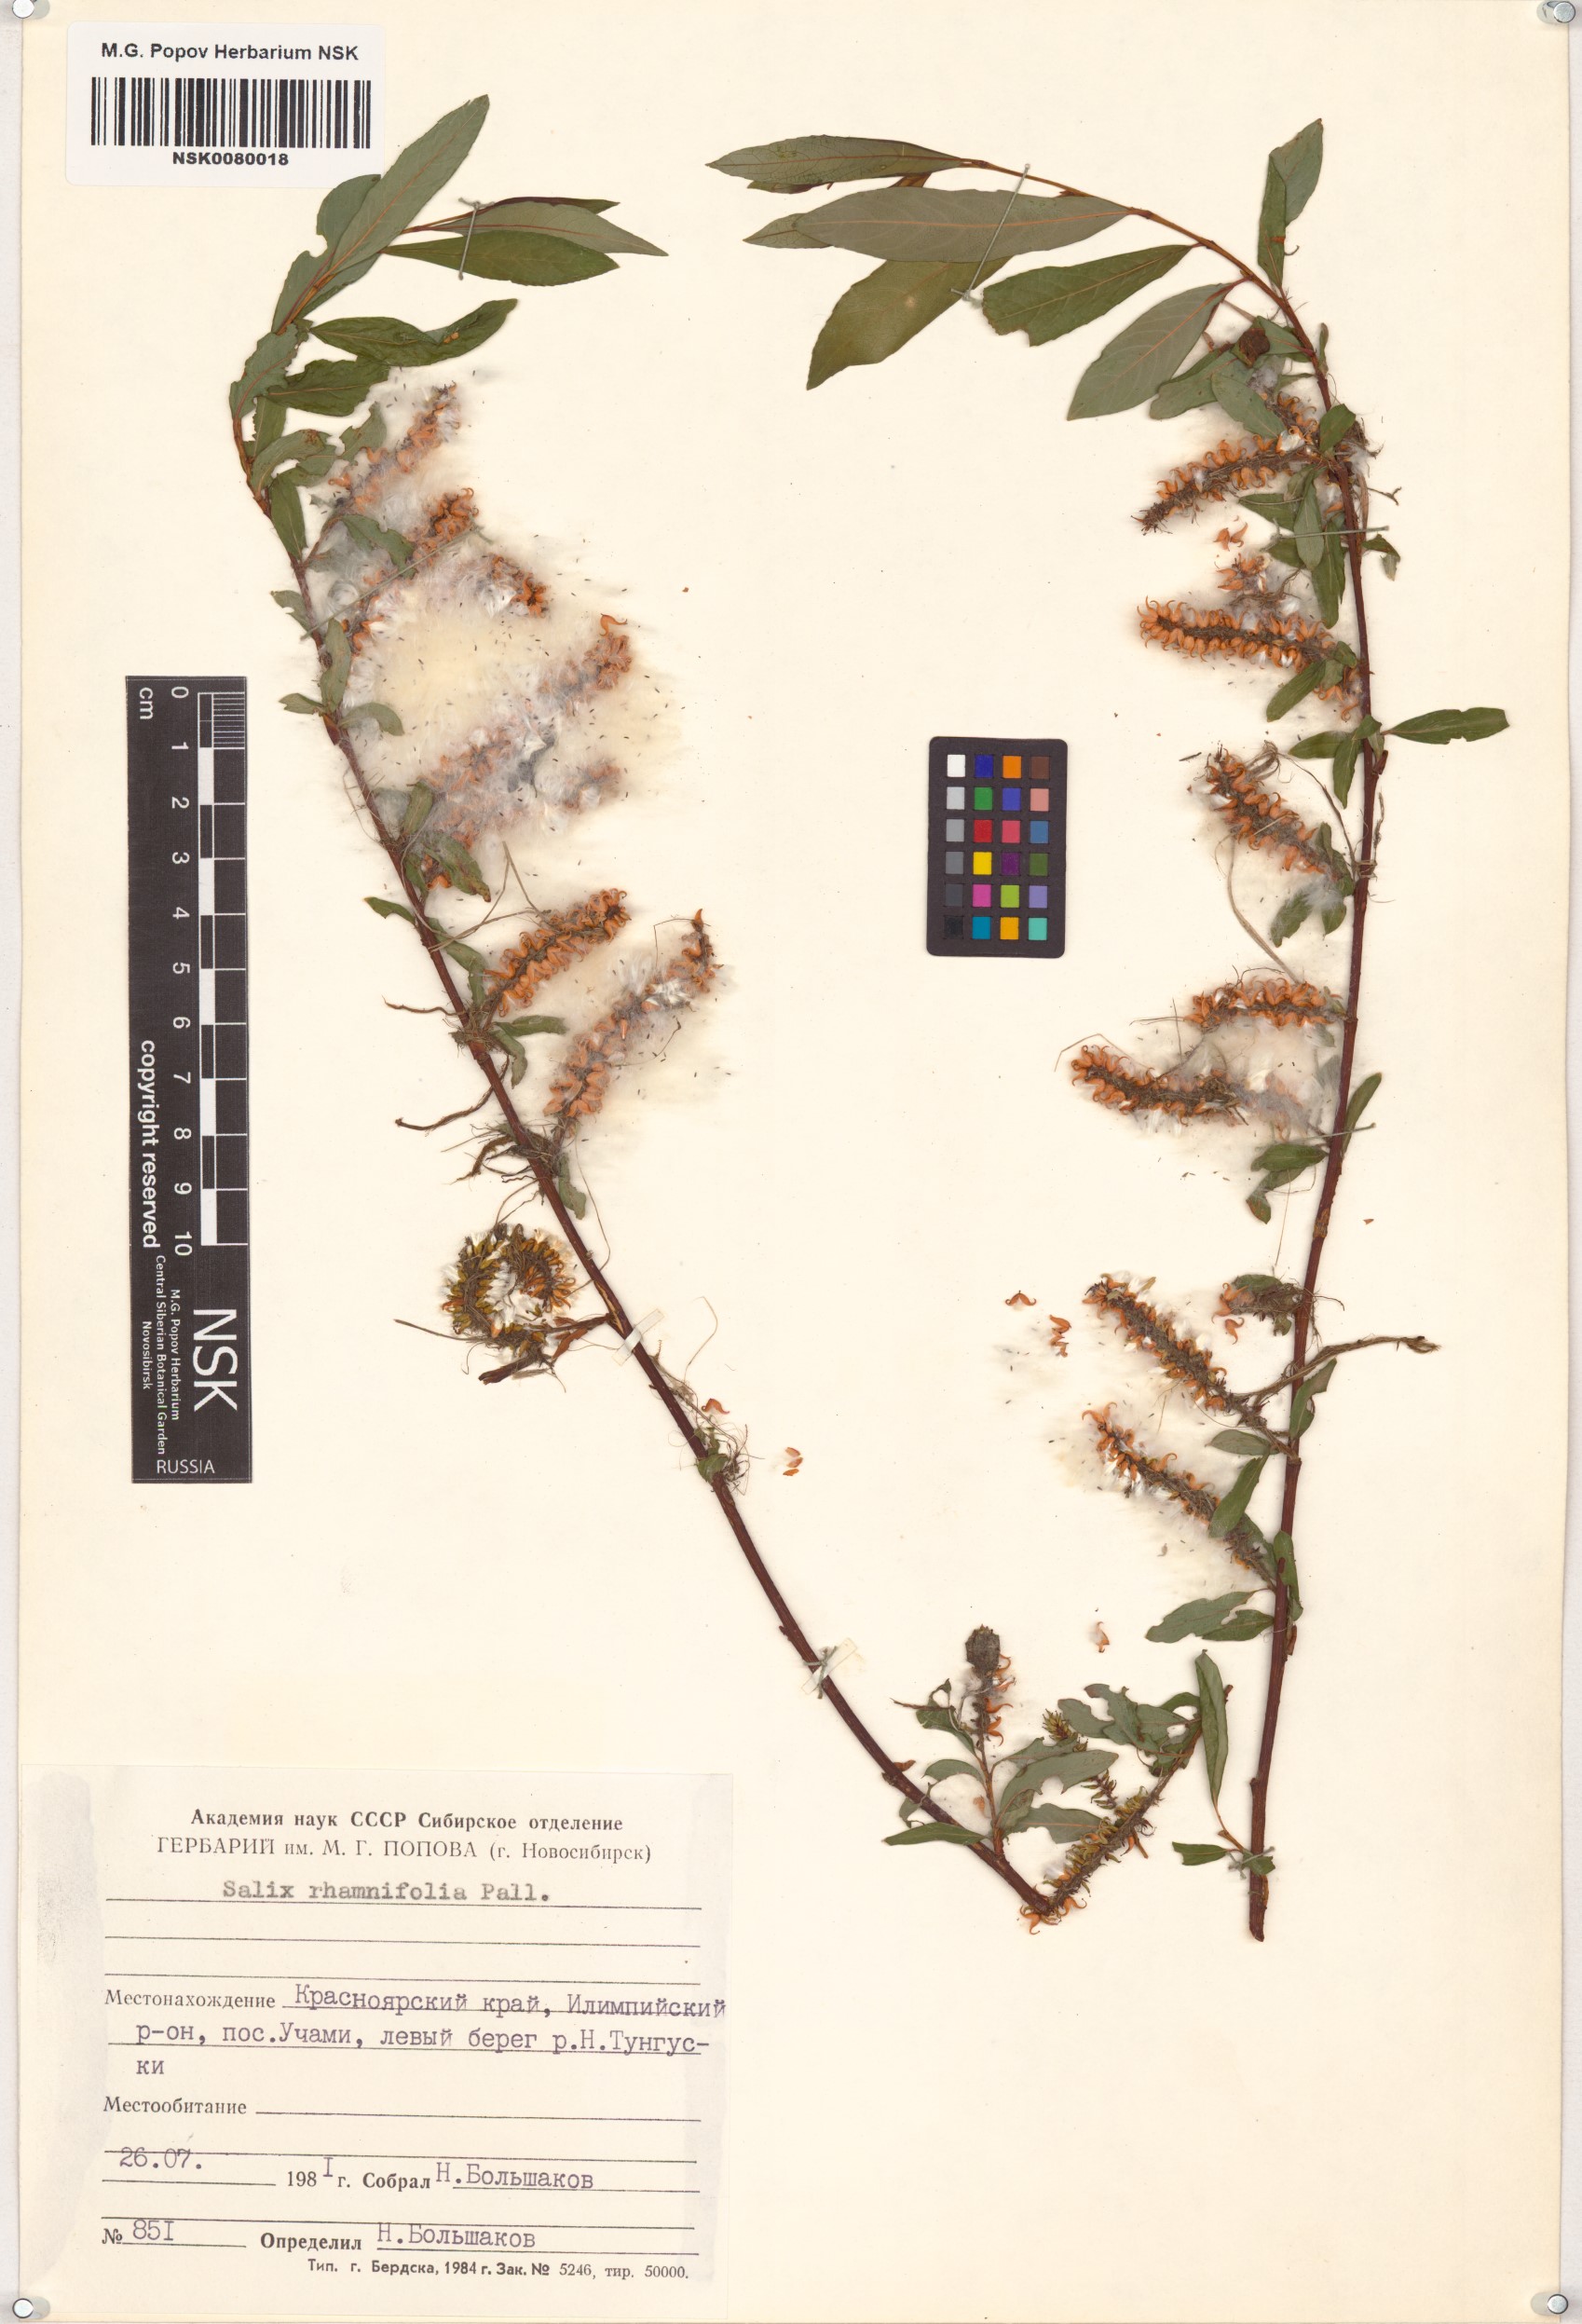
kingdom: Plantae
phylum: Tracheophyta
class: Magnoliopsida
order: Malpighiales
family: Salicaceae
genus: Salix
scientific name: Salix rhamnifolia
